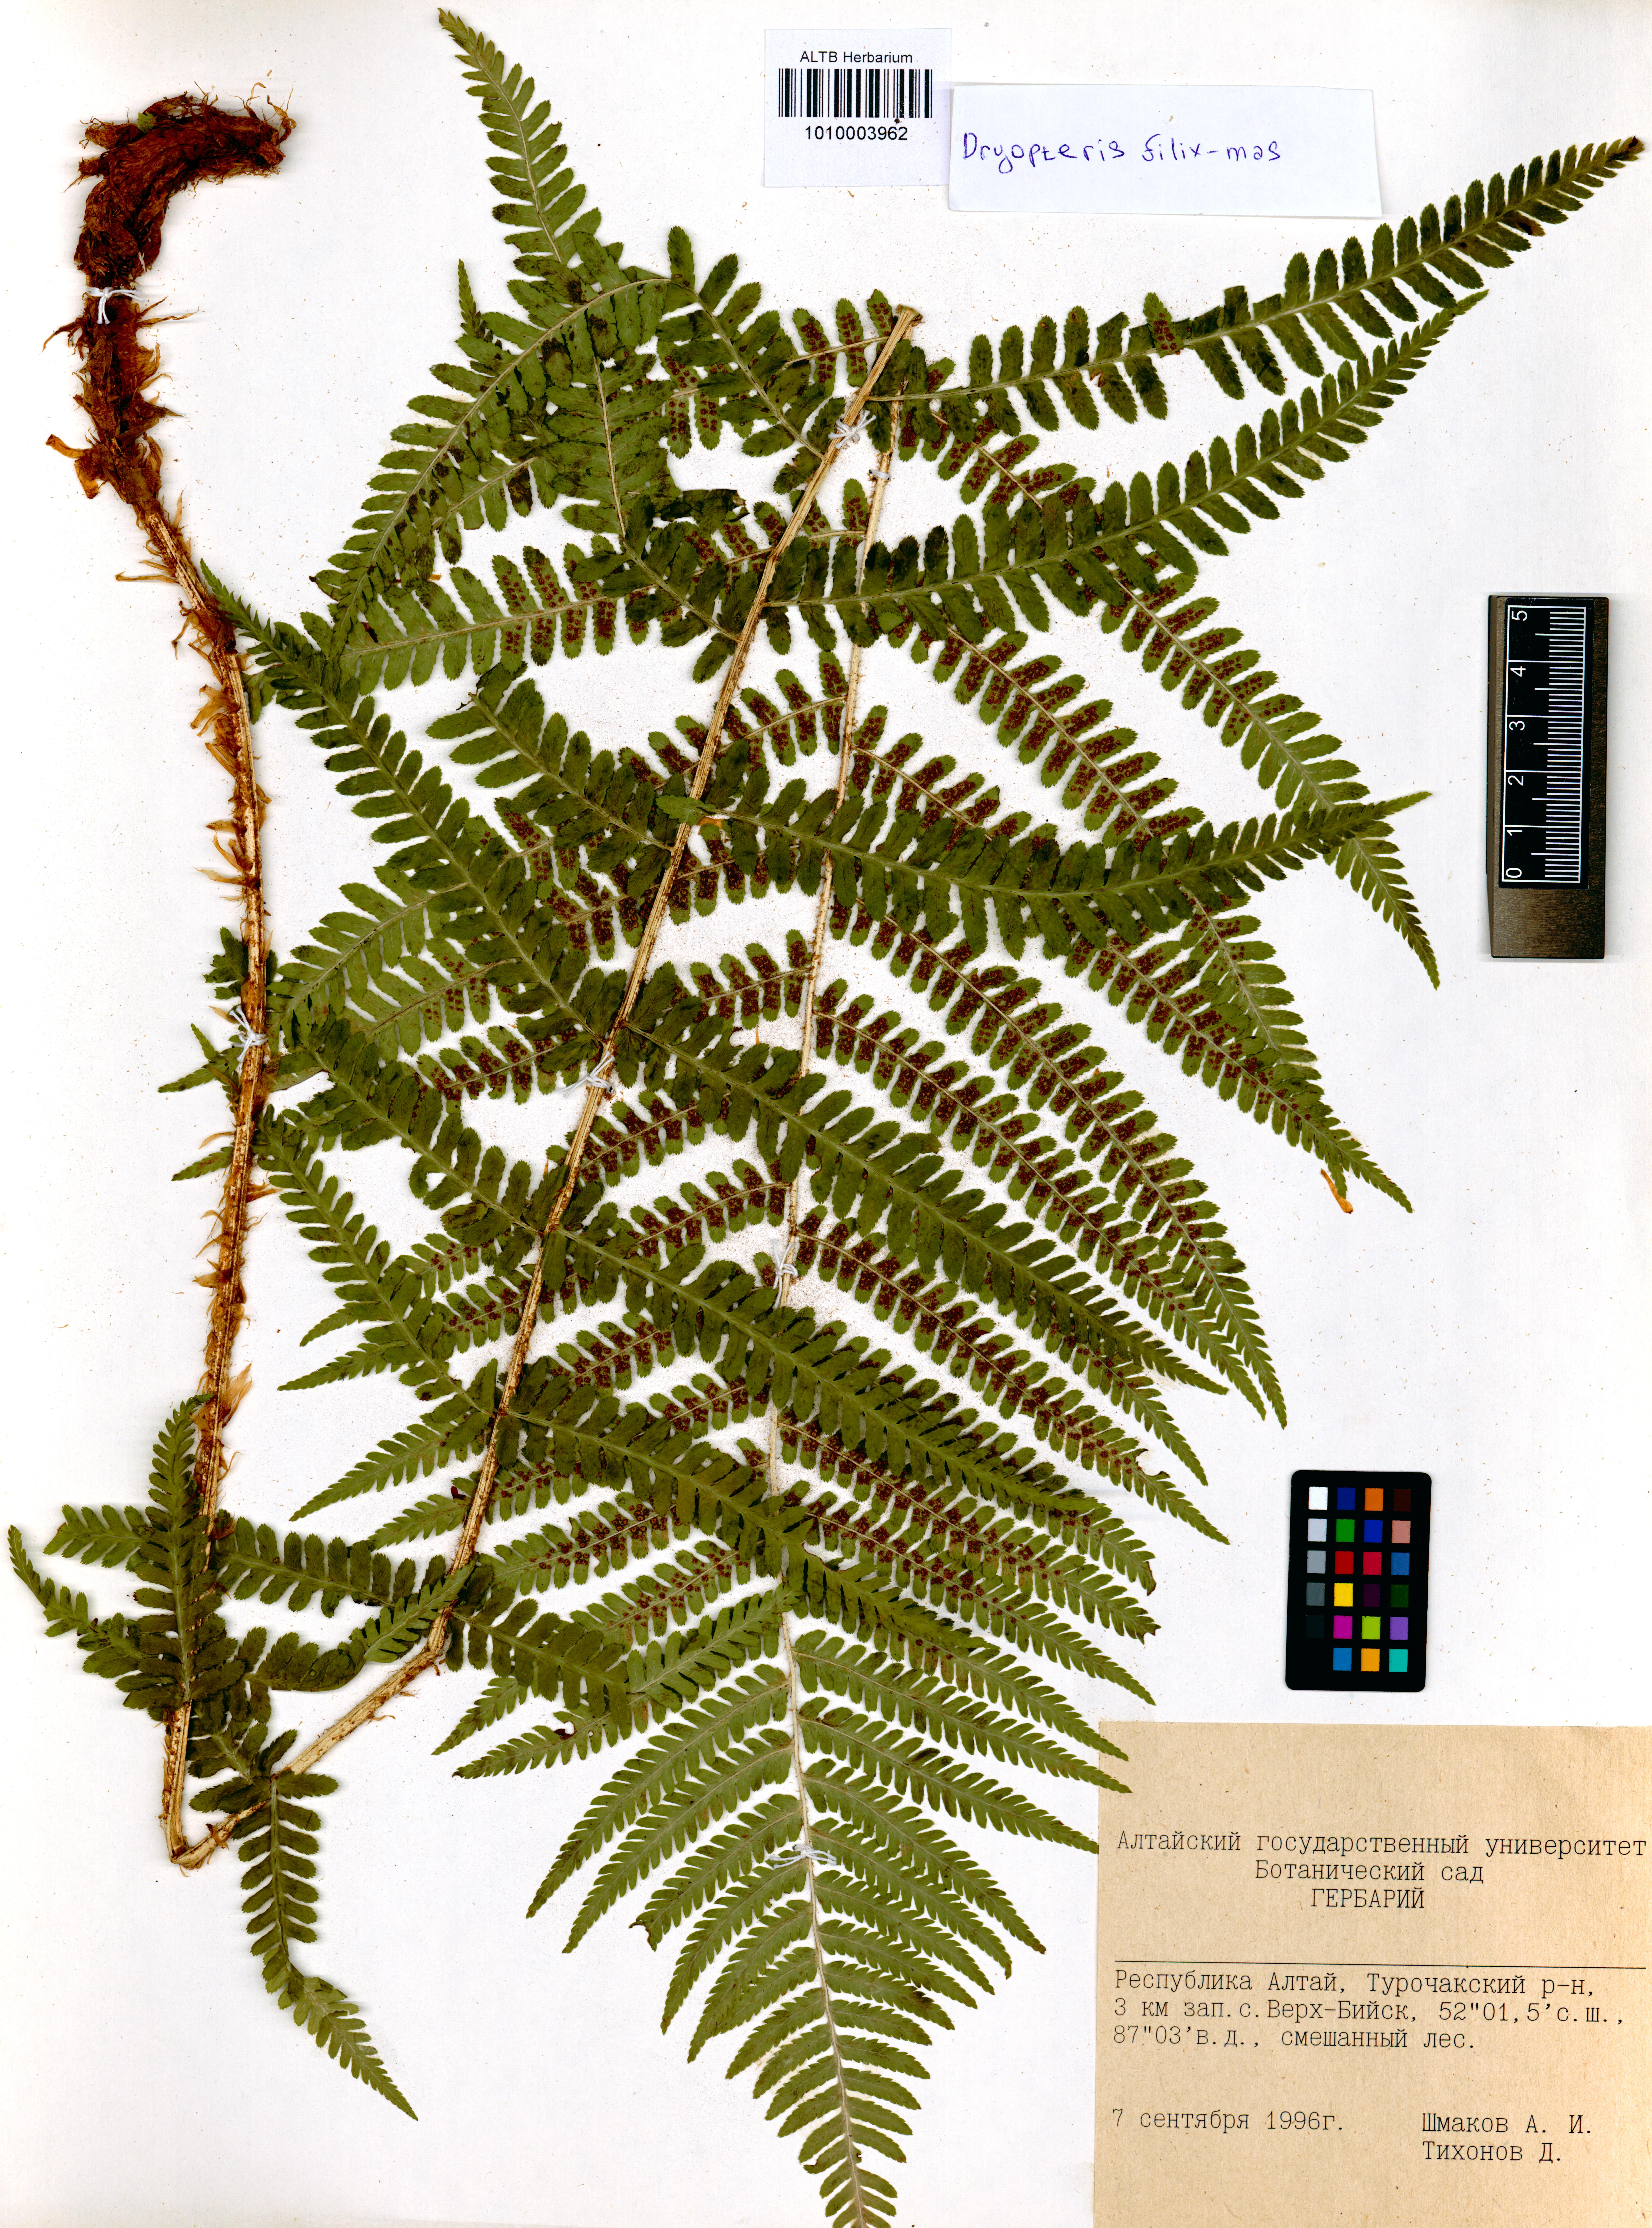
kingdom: Plantae
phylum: Tracheophyta
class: Polypodiopsida
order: Polypodiales
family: Dryopteridaceae
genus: Dryopteris
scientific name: Dryopteris filix-mas
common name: Male fern
